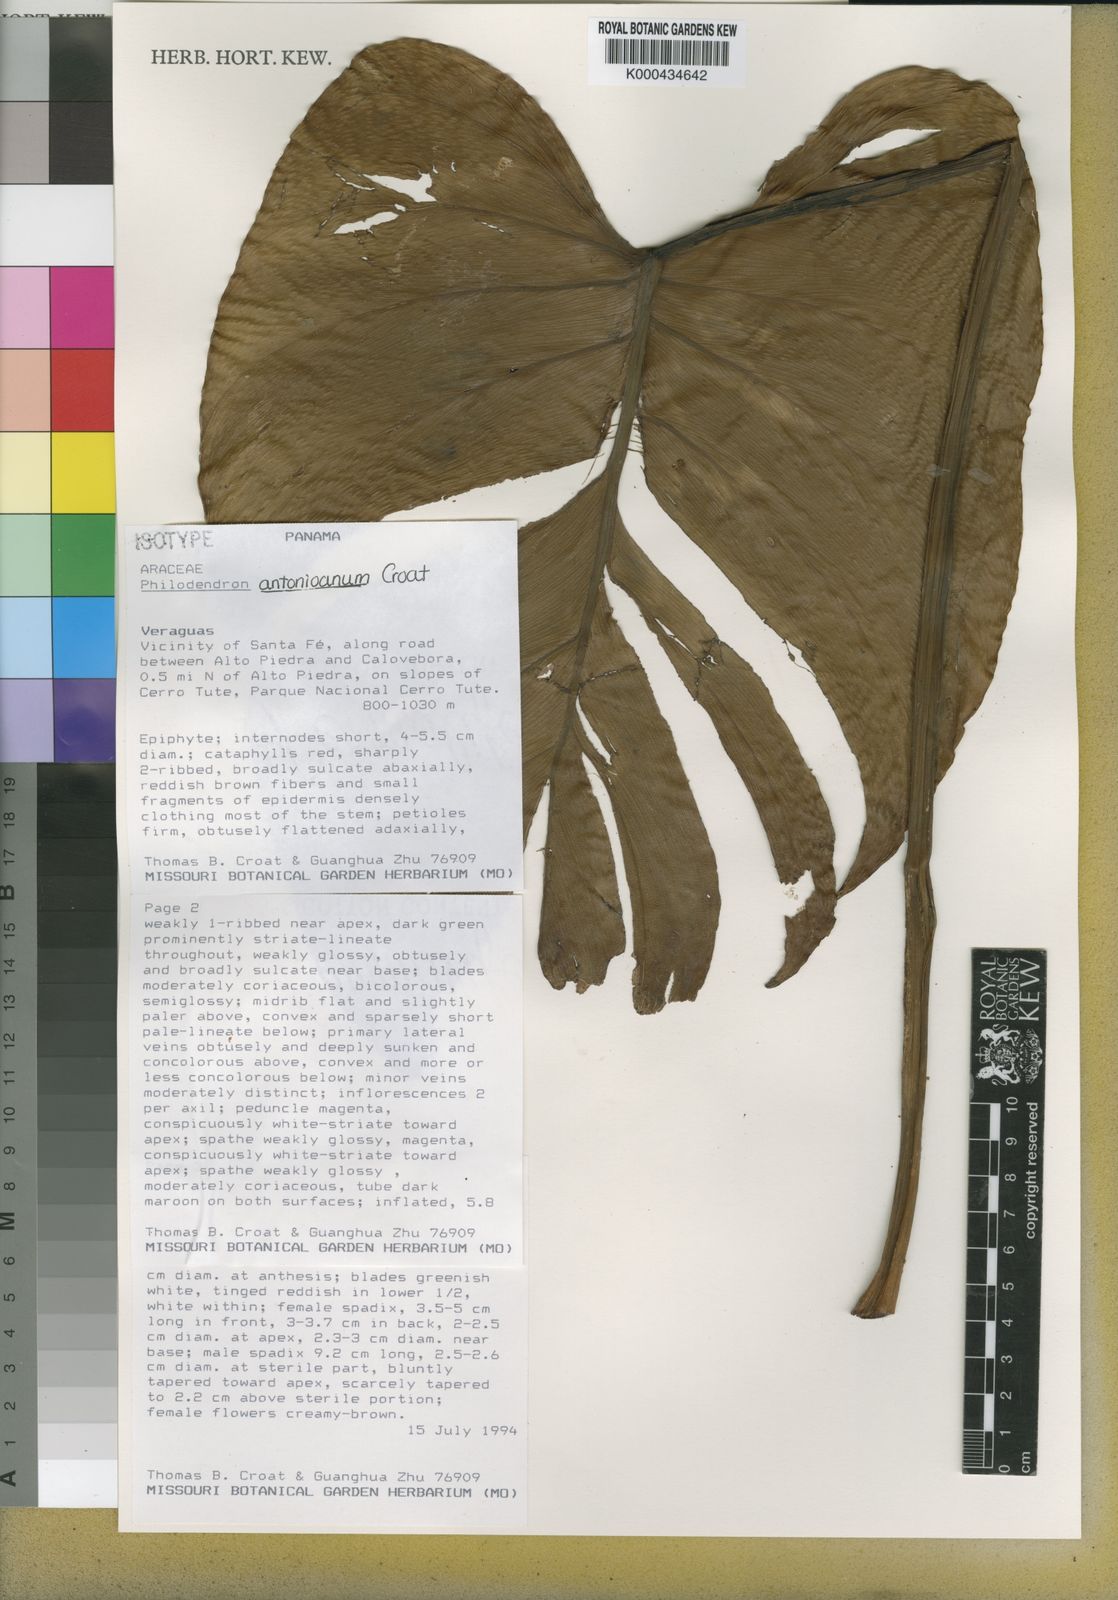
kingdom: Plantae
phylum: Tracheophyta
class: Liliopsida
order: Alismatales
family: Araceae
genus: Philodendron
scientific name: Philodendron antonioanum
